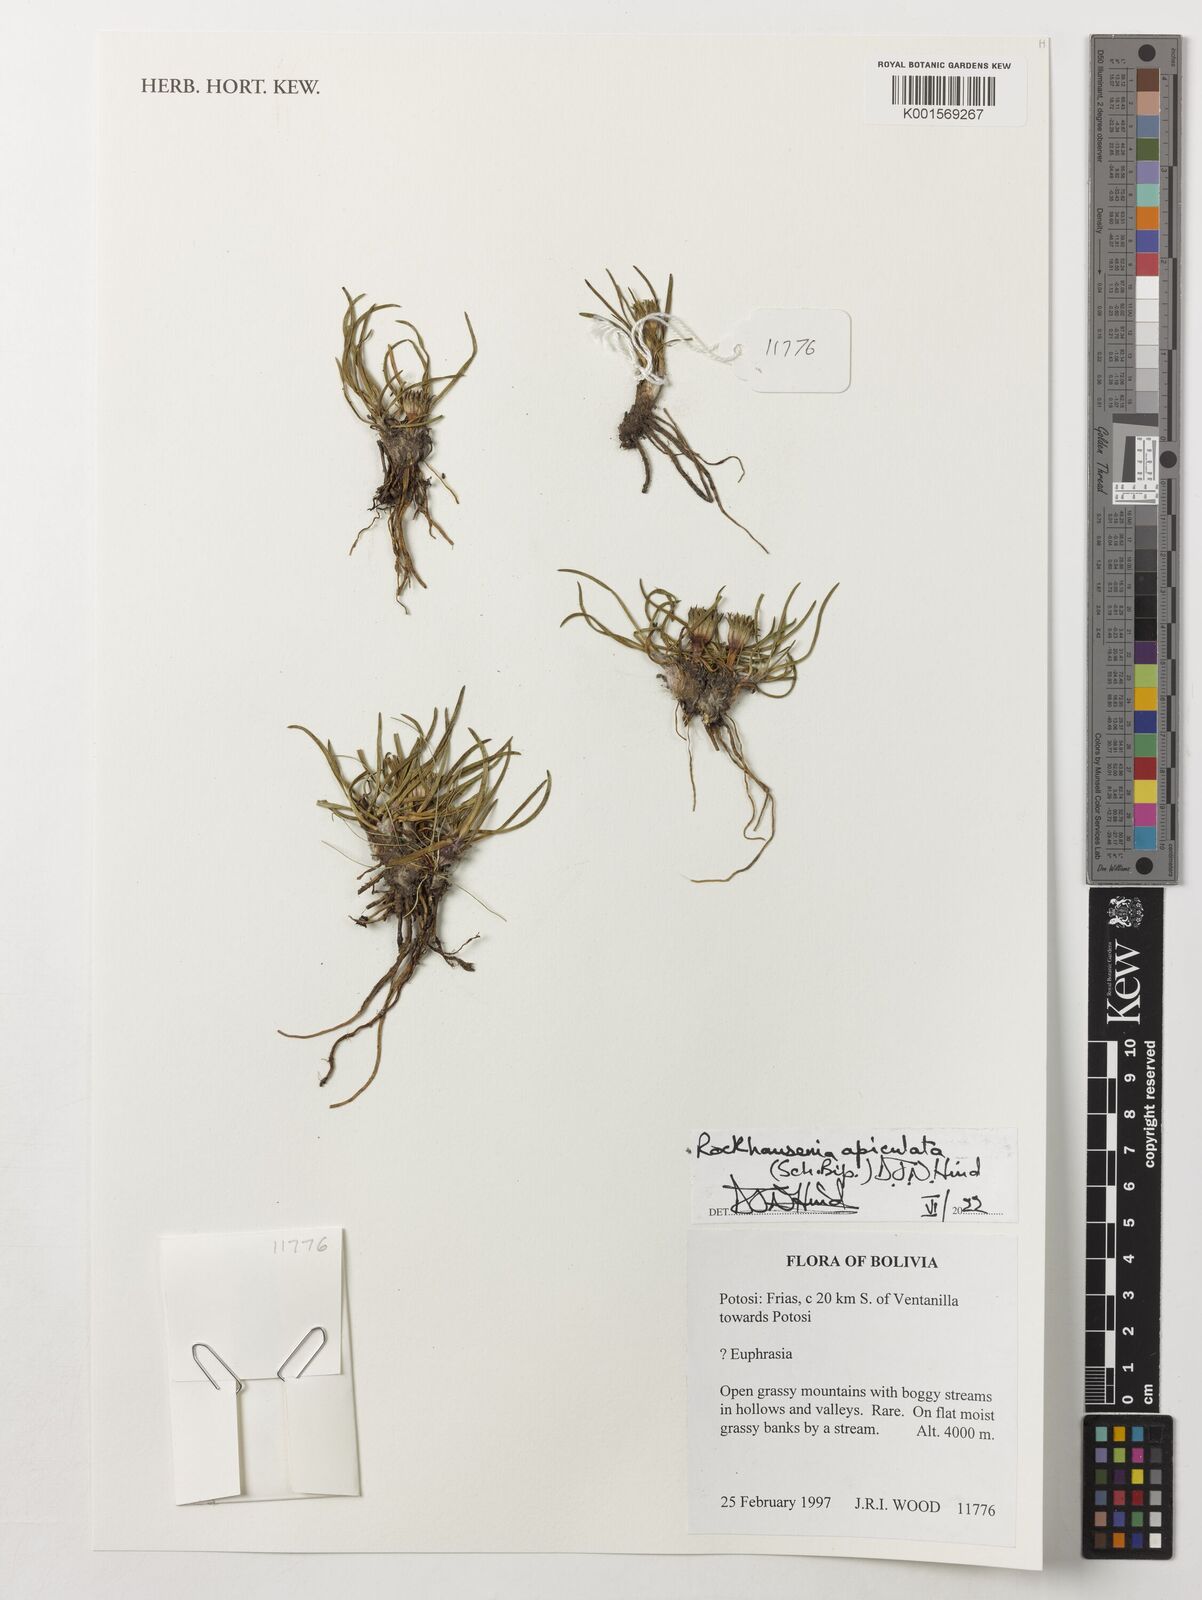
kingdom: Plantae
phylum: Tracheophyta
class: Magnoliopsida
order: Asterales
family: Asteraceae
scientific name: Asteraceae
